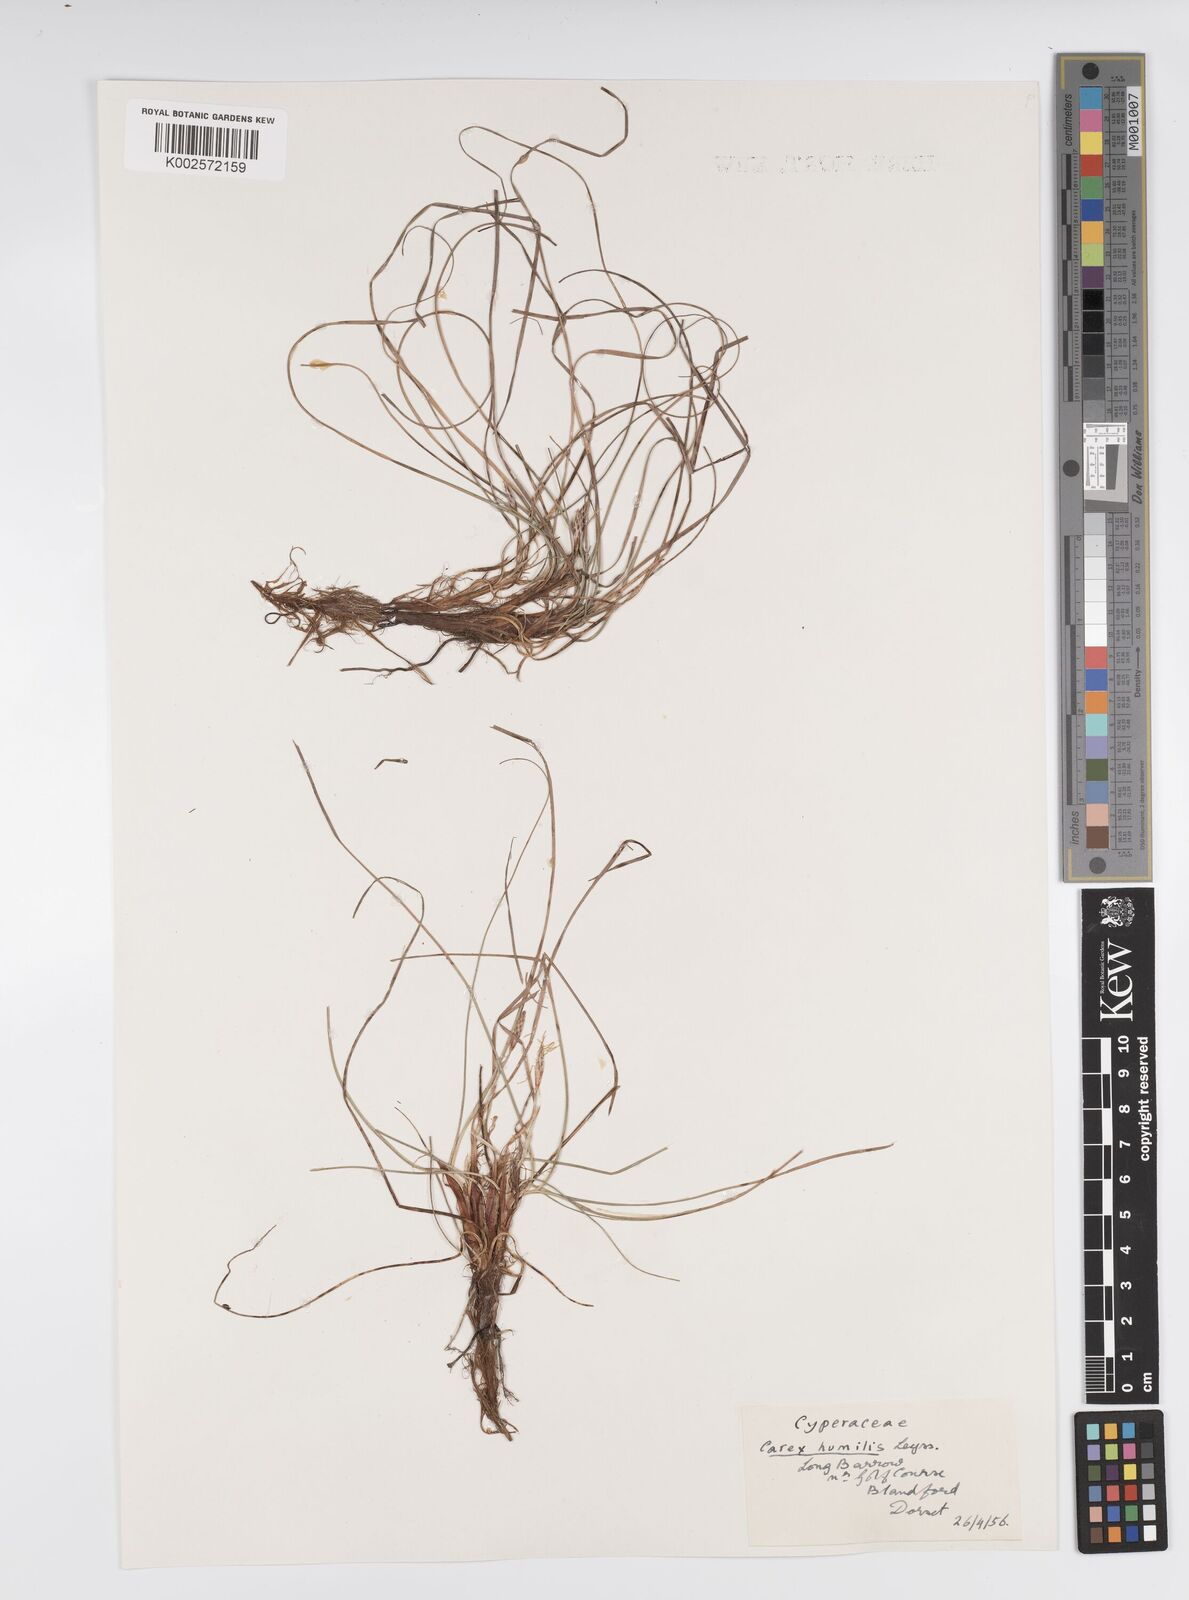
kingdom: Plantae
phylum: Tracheophyta
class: Liliopsida
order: Poales
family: Cyperaceae
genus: Carex
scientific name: Carex cespitosa
